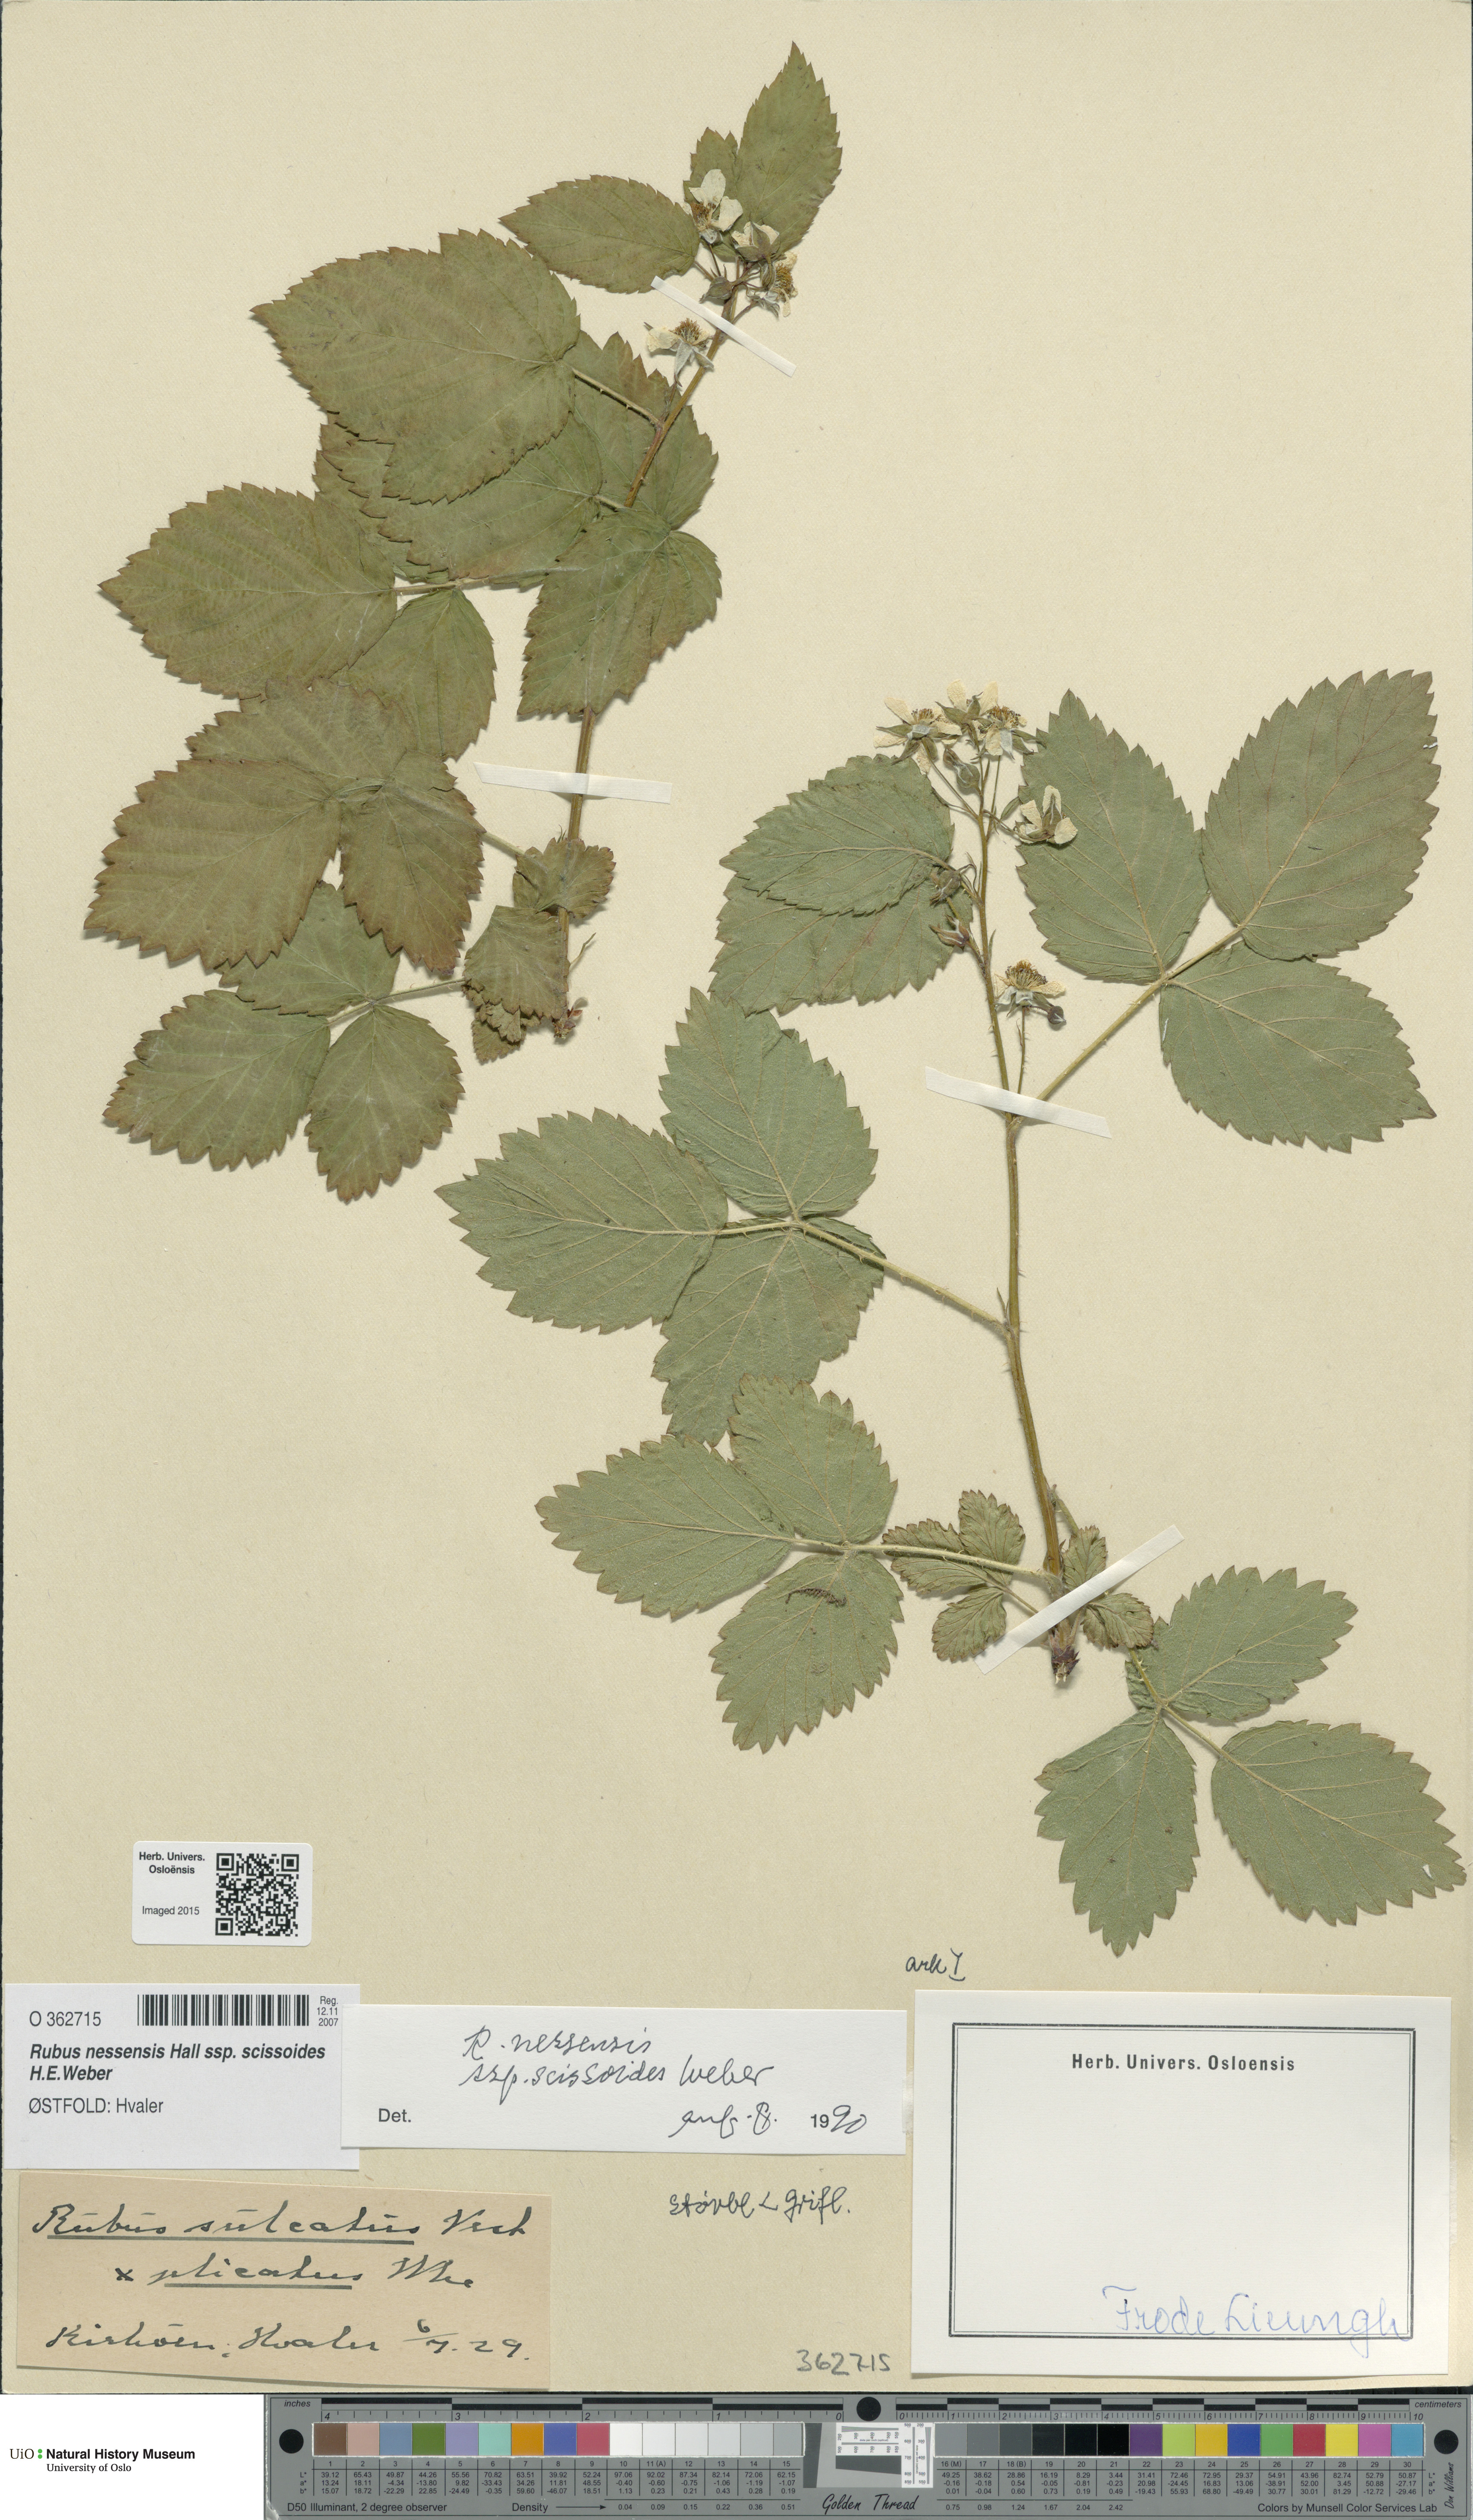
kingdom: Plantae
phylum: Tracheophyta
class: Magnoliopsida
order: Rosales
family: Rosaceae
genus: Rubus
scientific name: Rubus scissus
